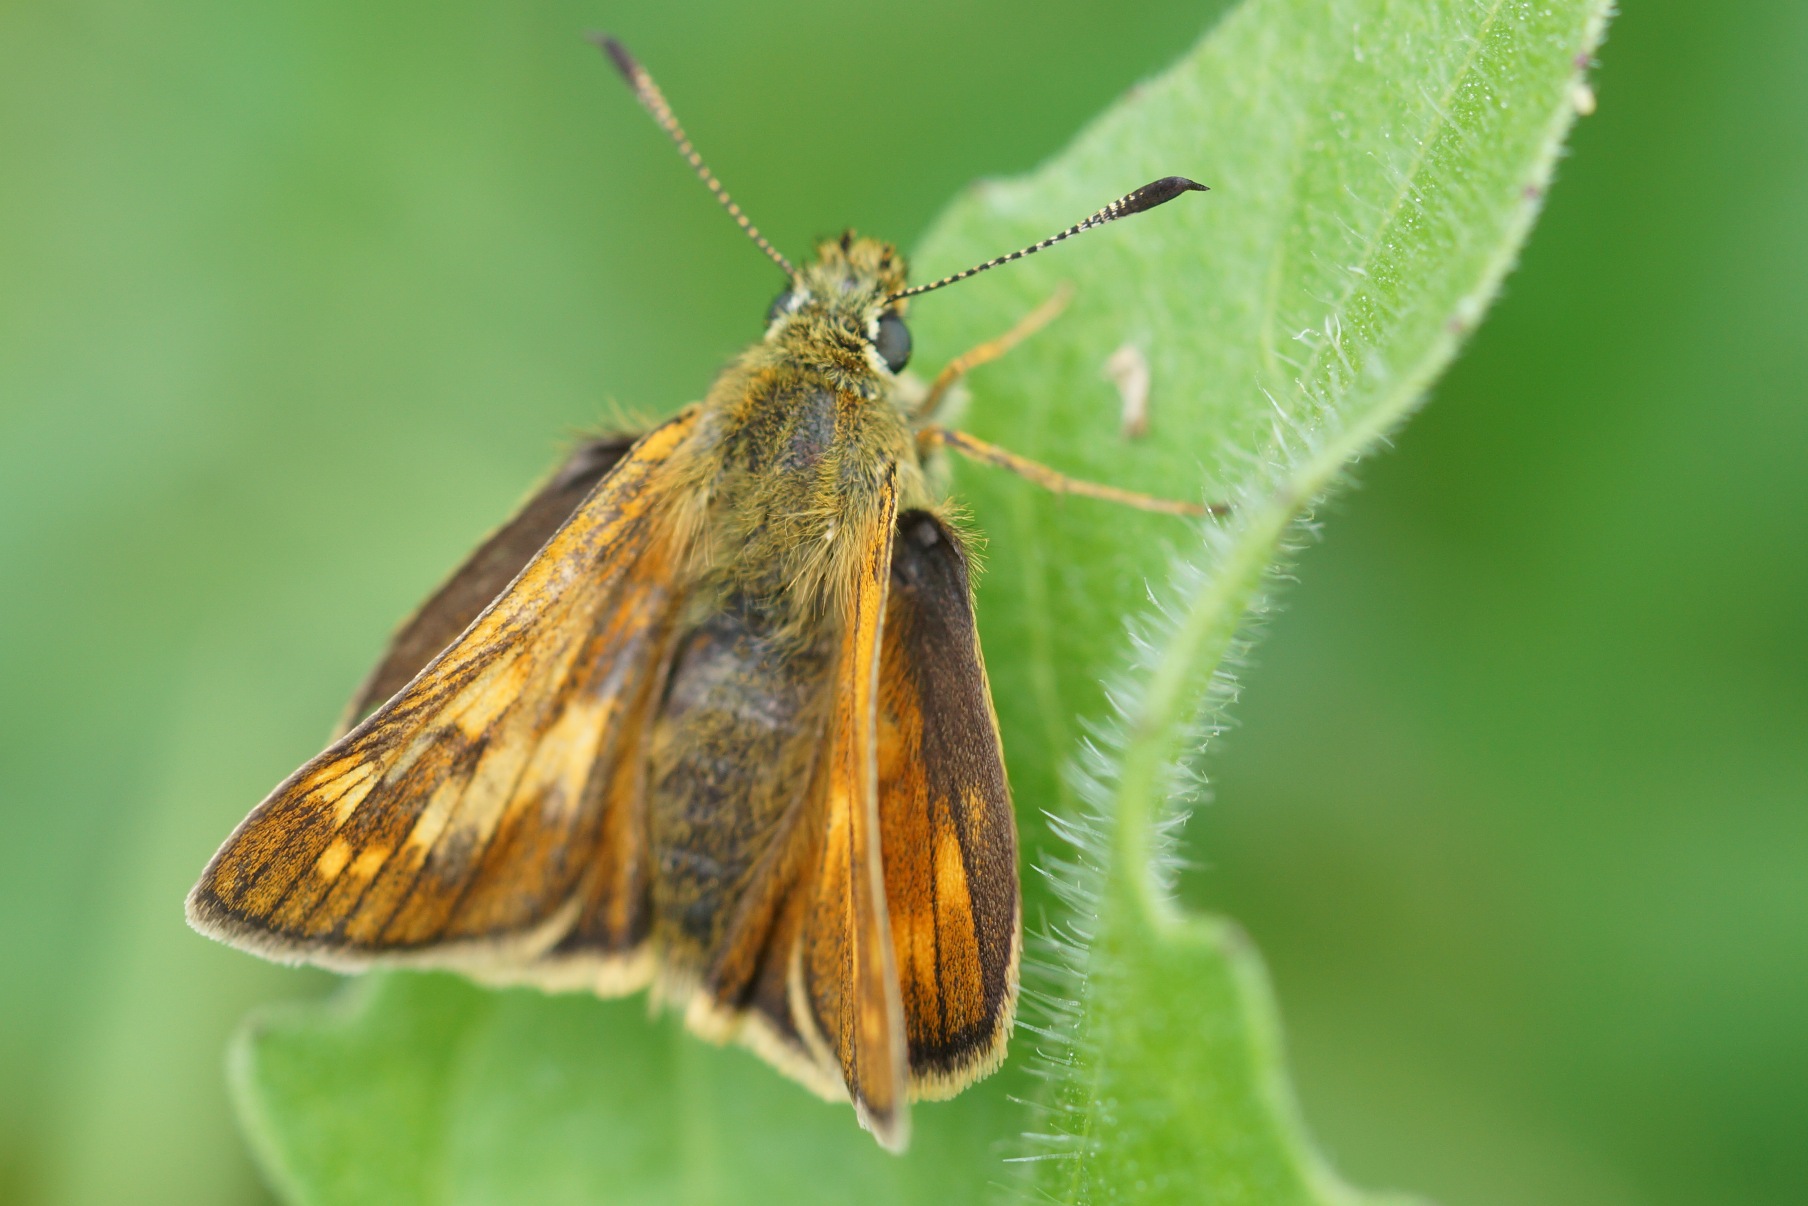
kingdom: Animalia
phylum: Arthropoda
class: Insecta
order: Lepidoptera
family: Hesperiidae
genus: Ochlodes
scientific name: Ochlodes venata
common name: Stor bredpande
